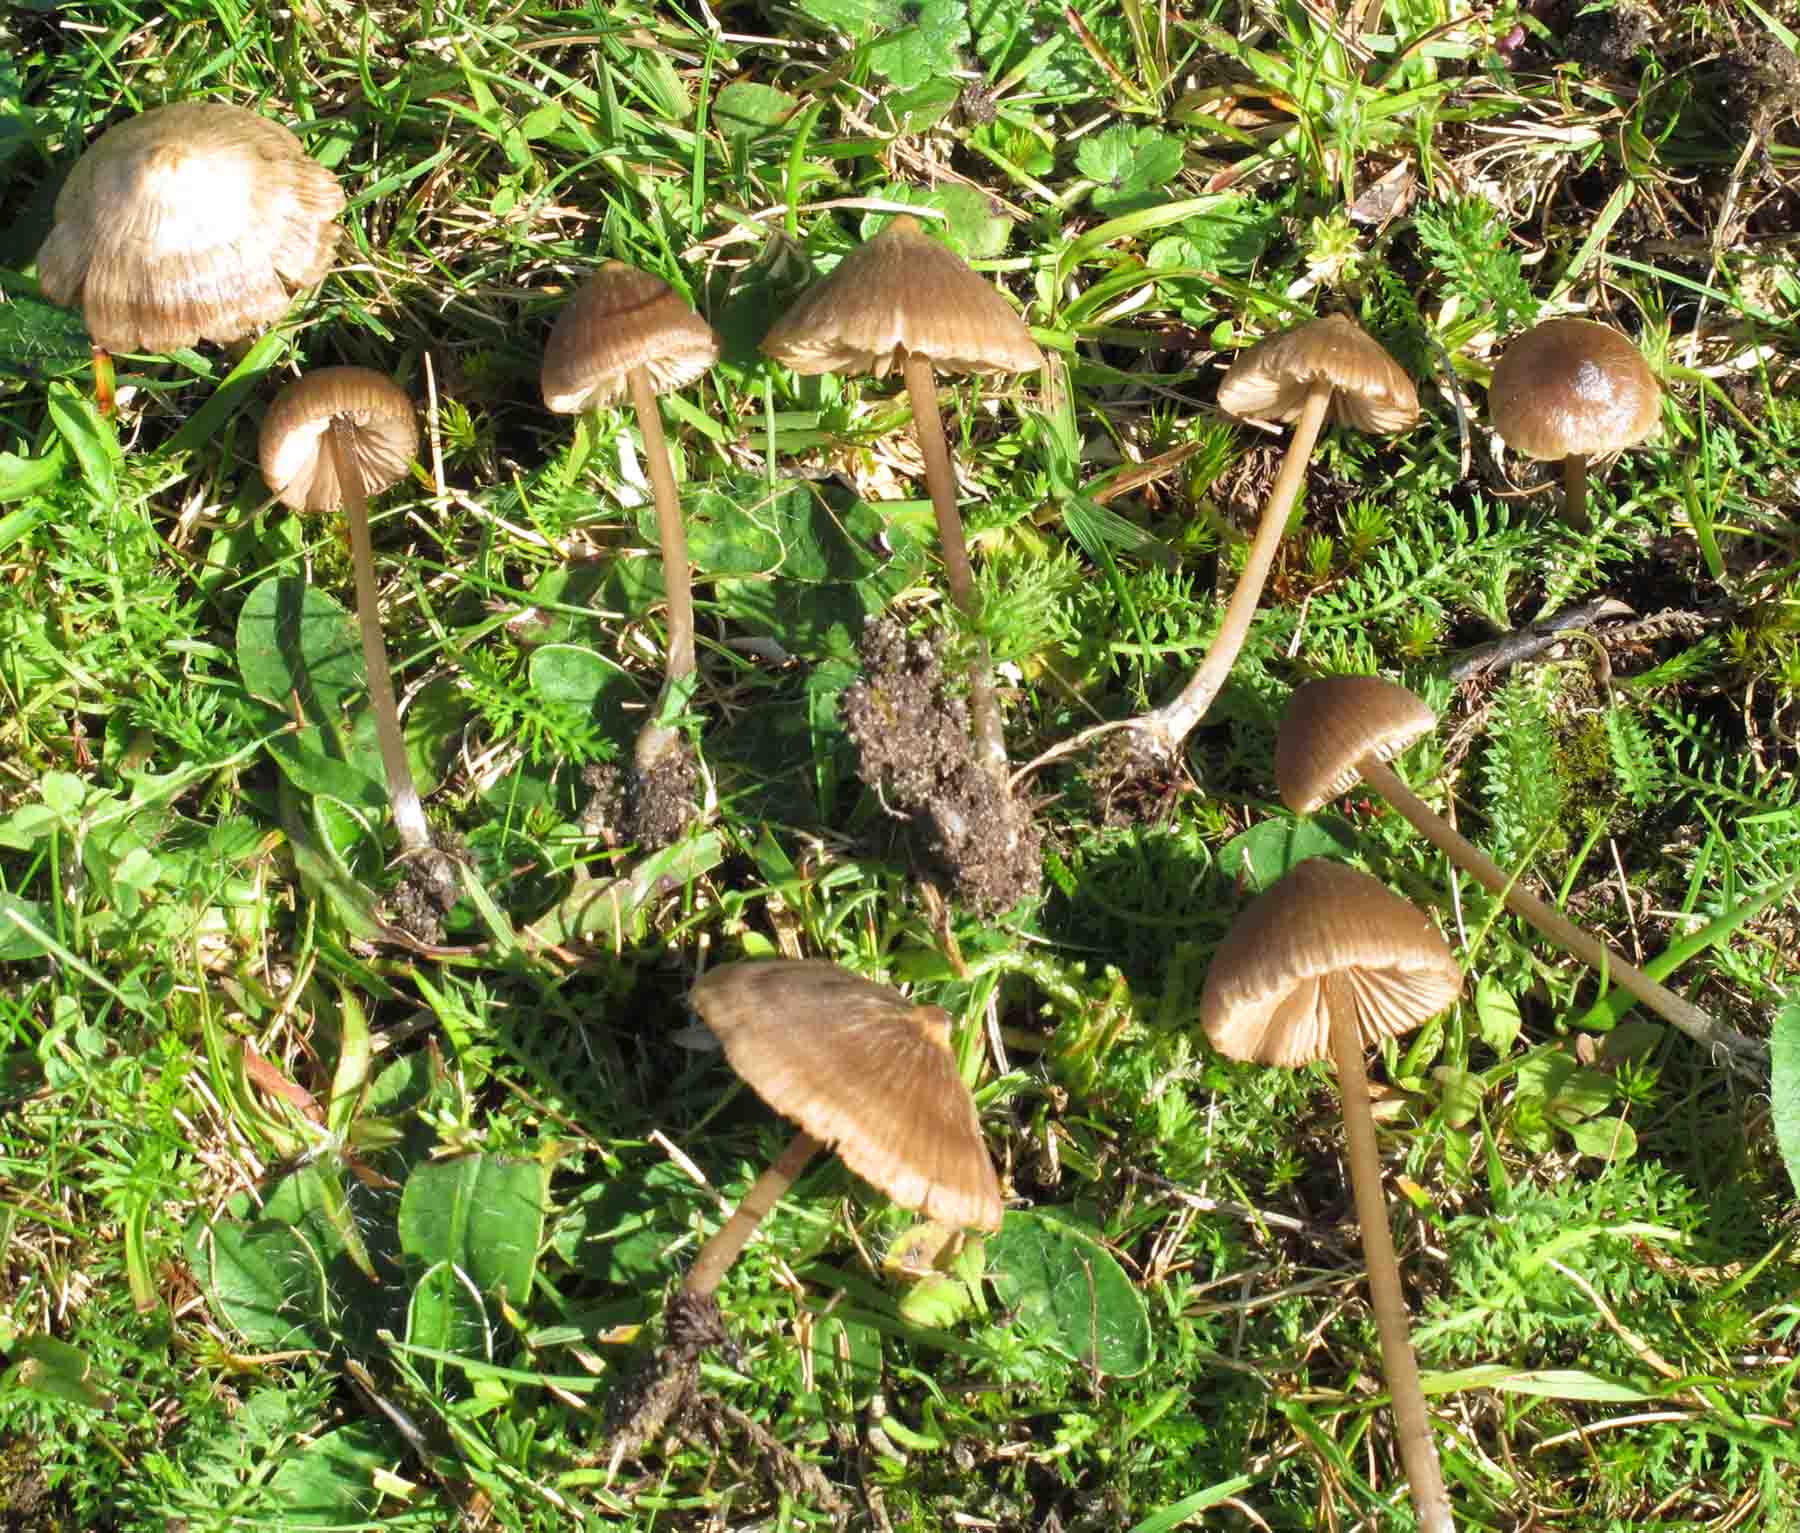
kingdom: Fungi
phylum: Basidiomycota
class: Agaricomycetes
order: Agaricales
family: Entolomataceae
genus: Entoloma
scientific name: Entoloma infula
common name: hvidbladet rødblad
